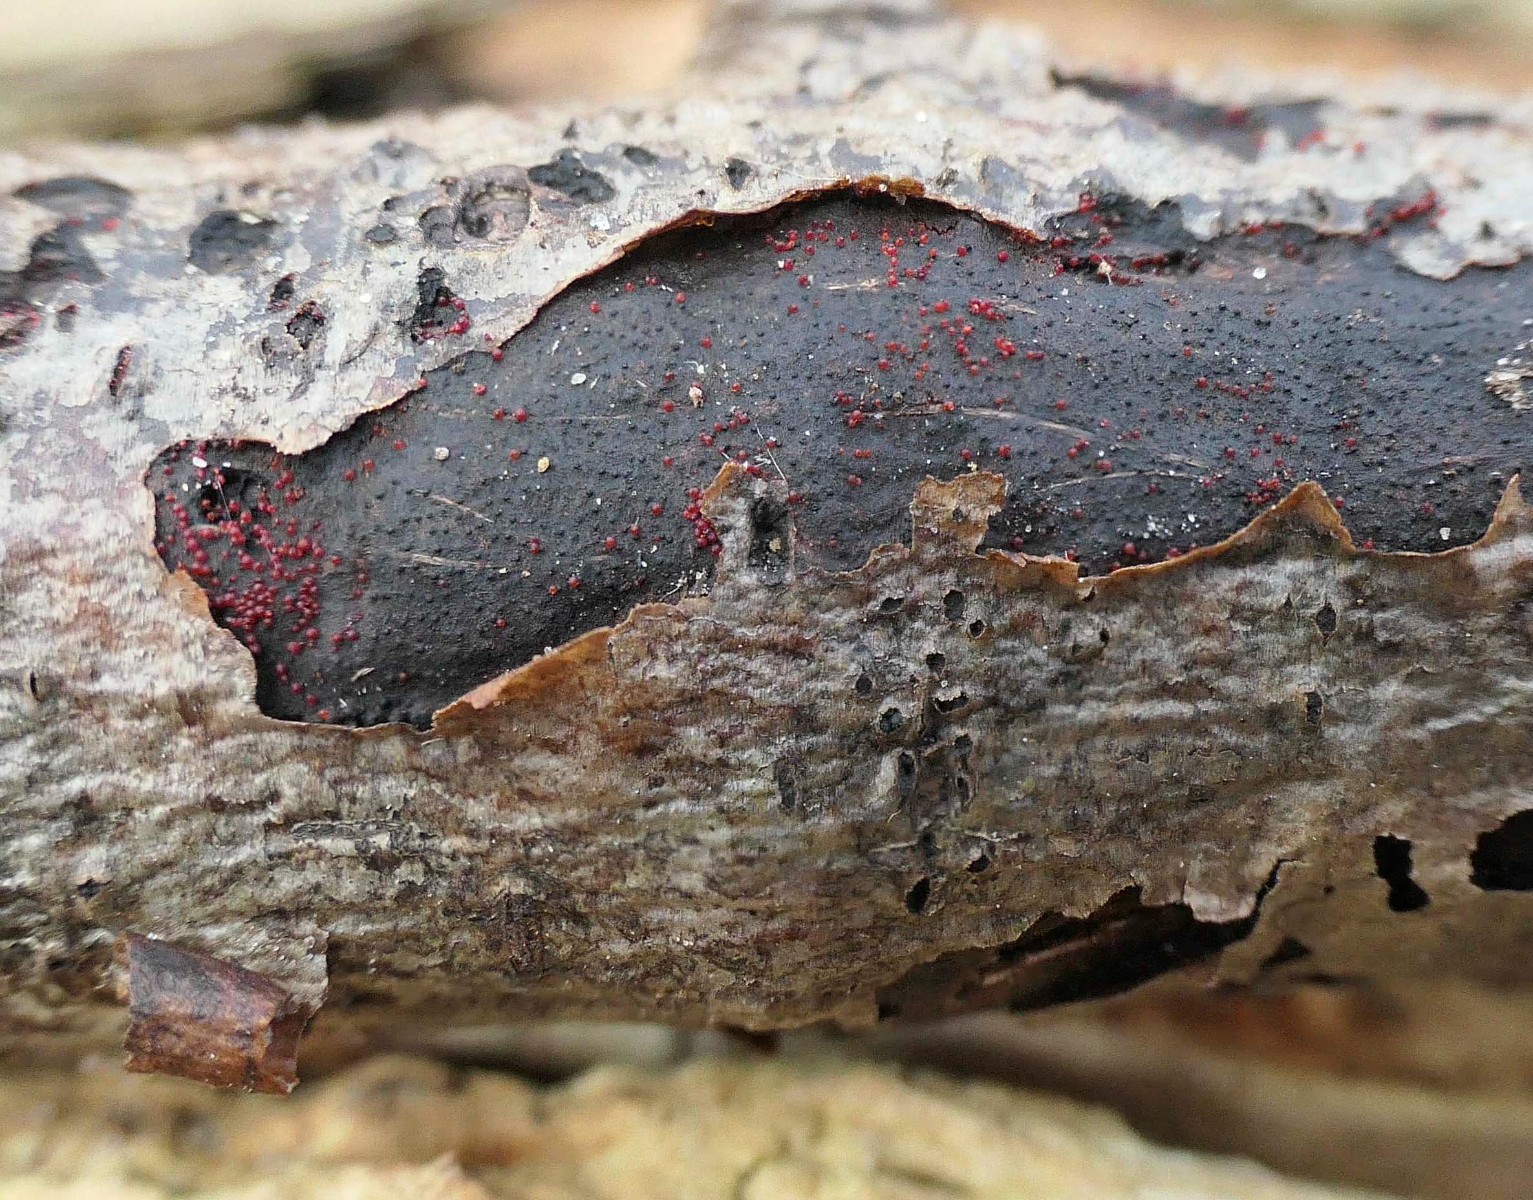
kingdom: Fungi
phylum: Ascomycota
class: Sordariomycetes
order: Hypocreales
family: Nectriaceae
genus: Dialonectria
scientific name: Dialonectria episphaeria
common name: kulskorpe-cinnobersvamp
